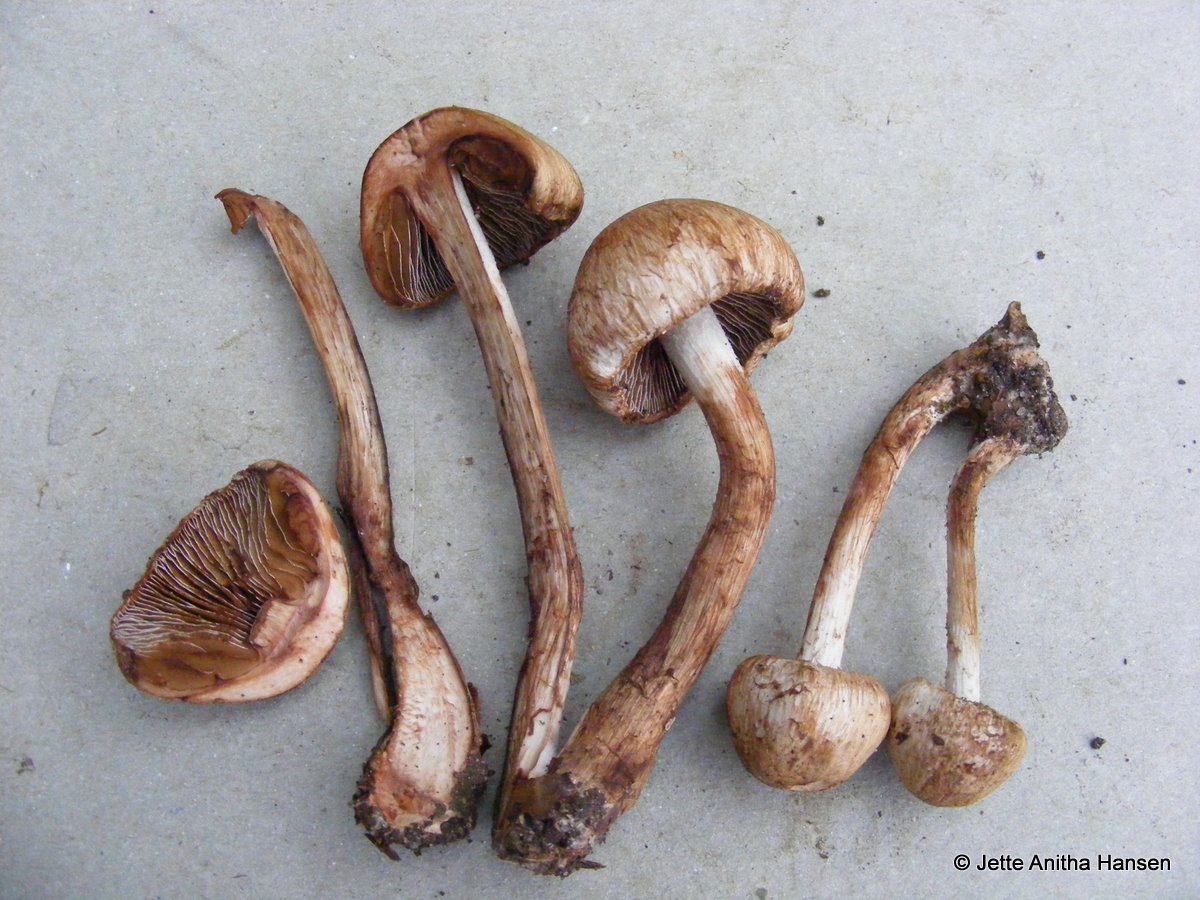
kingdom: Fungi
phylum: Basidiomycota
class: Agaricomycetes
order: Agaricales
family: Inocybaceae
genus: Inosperma
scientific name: Inosperma bongardii
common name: Bongards trævlhat
